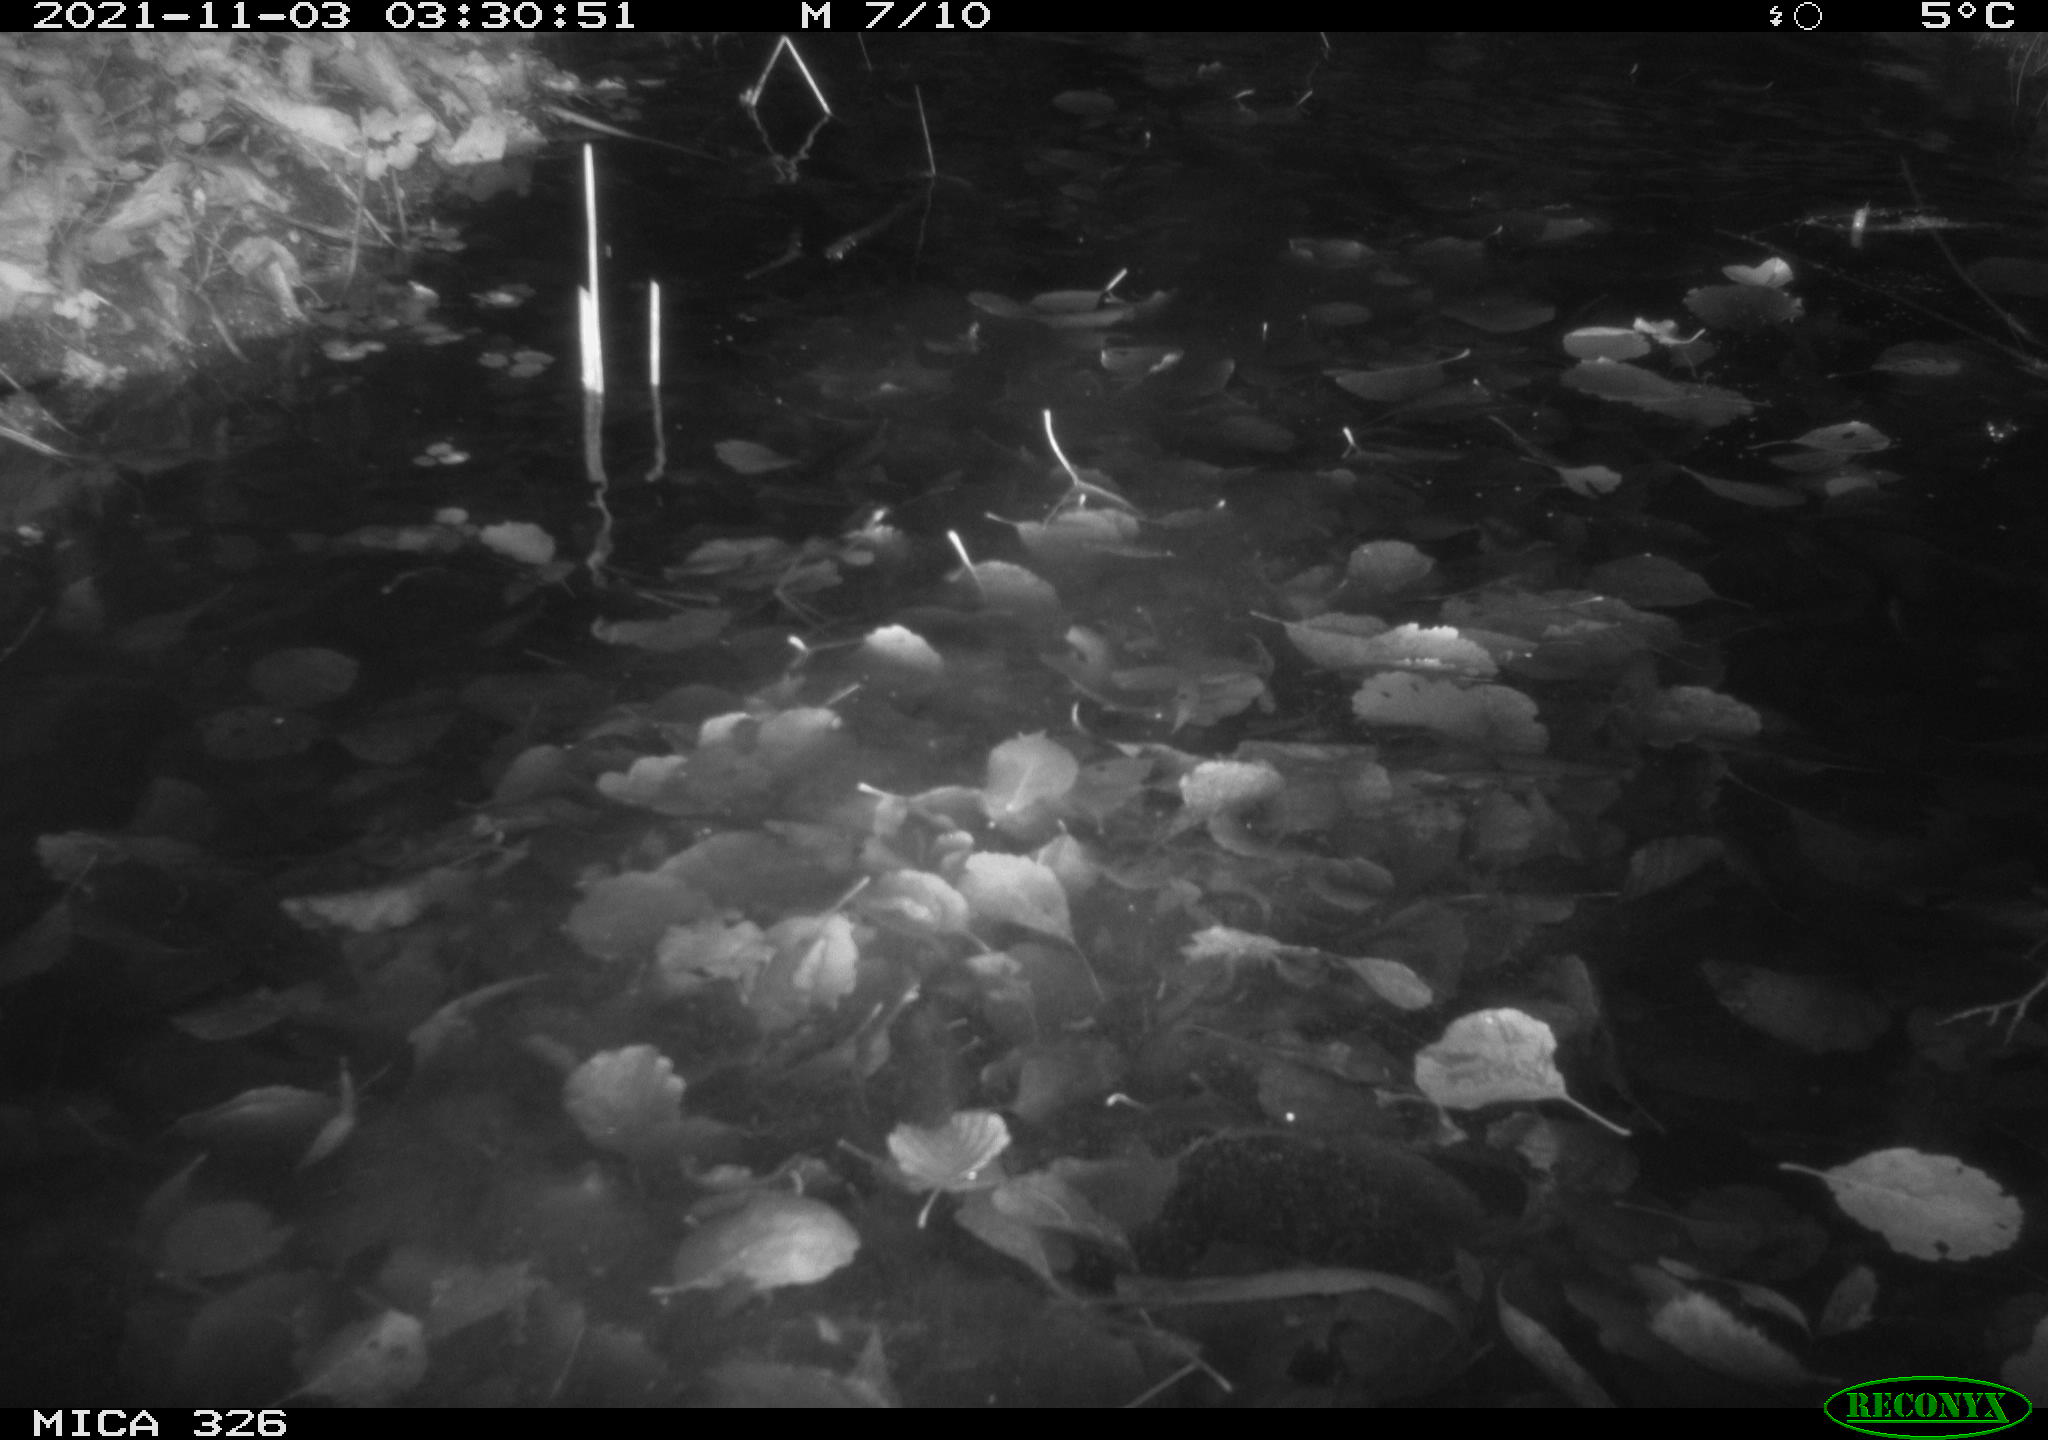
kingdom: Animalia
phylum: Chordata
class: Mammalia
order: Rodentia
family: Myocastoridae
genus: Myocastor
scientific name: Myocastor coypus
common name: Coypu
